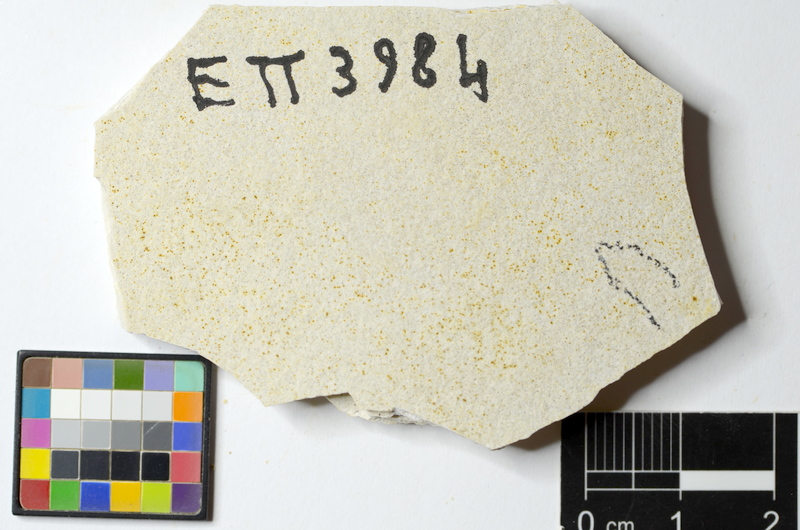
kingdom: Animalia
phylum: Chordata
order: Salmoniformes
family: Orthogonikleithridae
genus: Orthogonikleithrus
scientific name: Orthogonikleithrus hoelli
